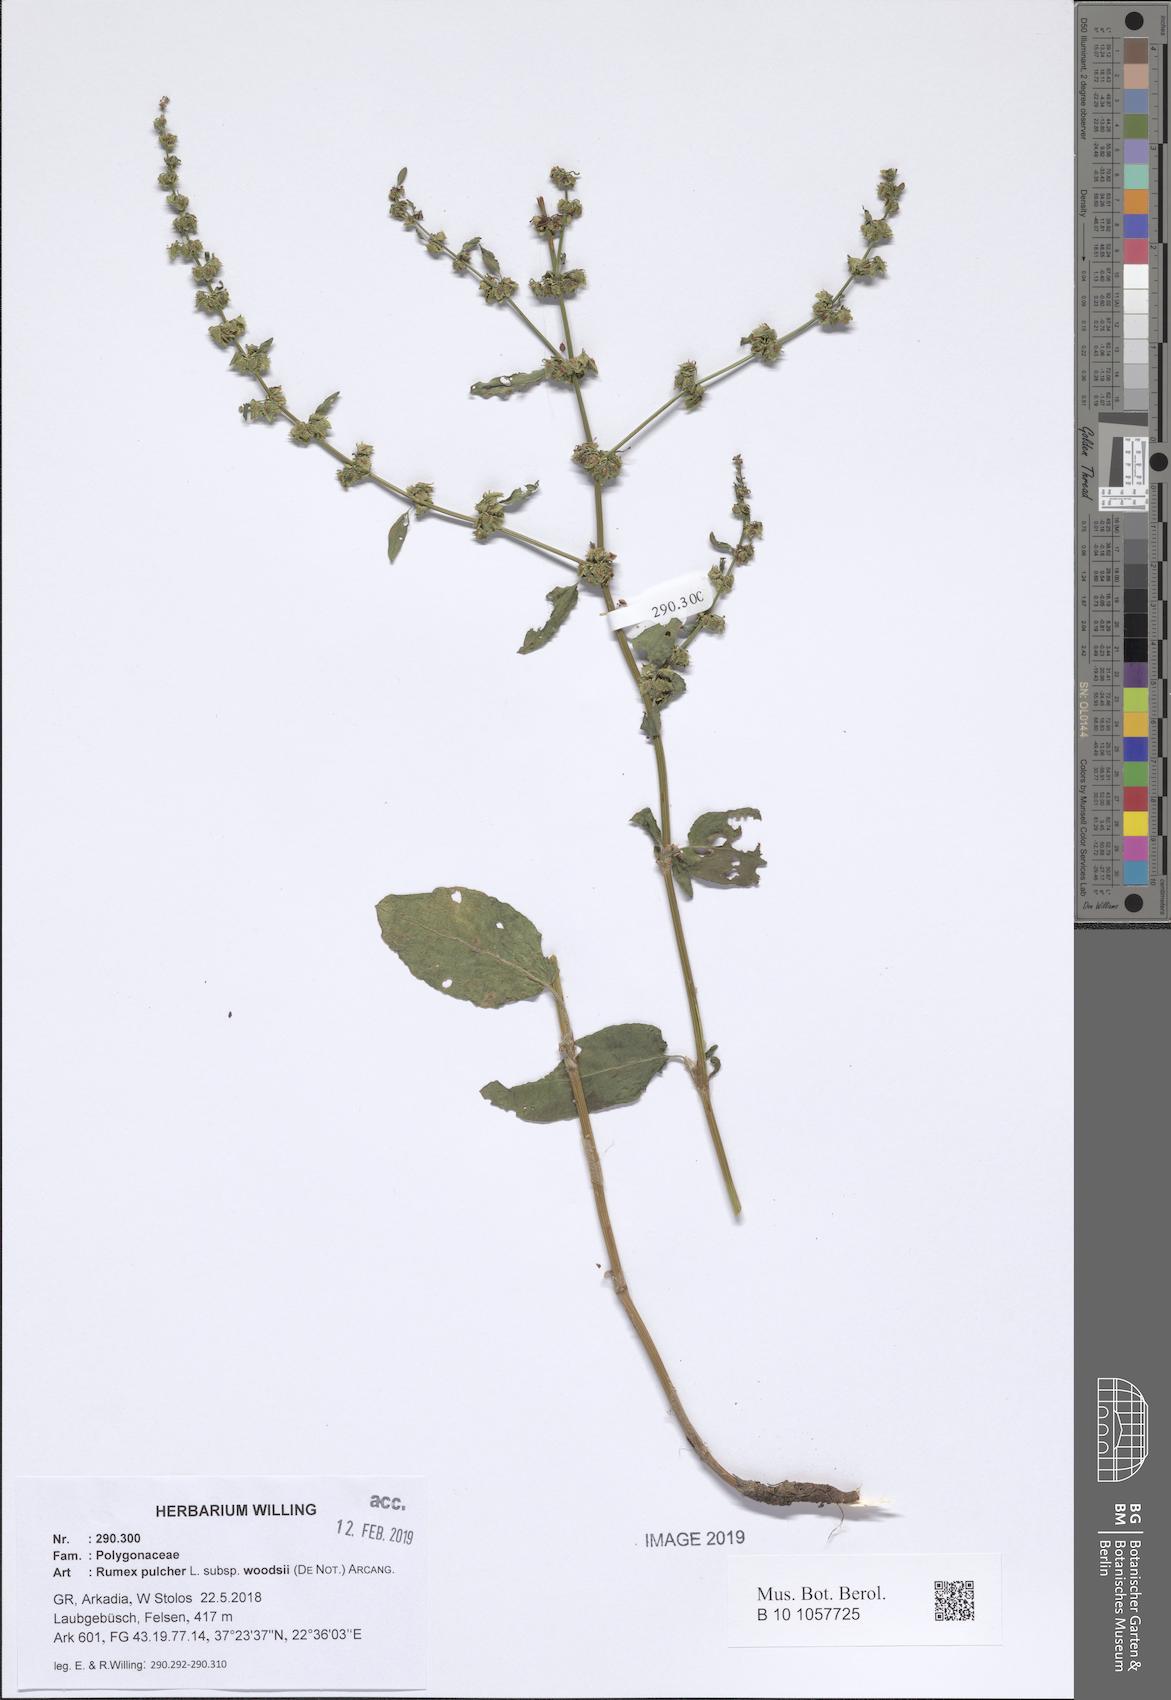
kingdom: Plantae
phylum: Tracheophyta
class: Magnoliopsida
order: Caryophyllales
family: Polygonaceae
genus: Rumex
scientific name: Rumex pulcher
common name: Fiddle dock
